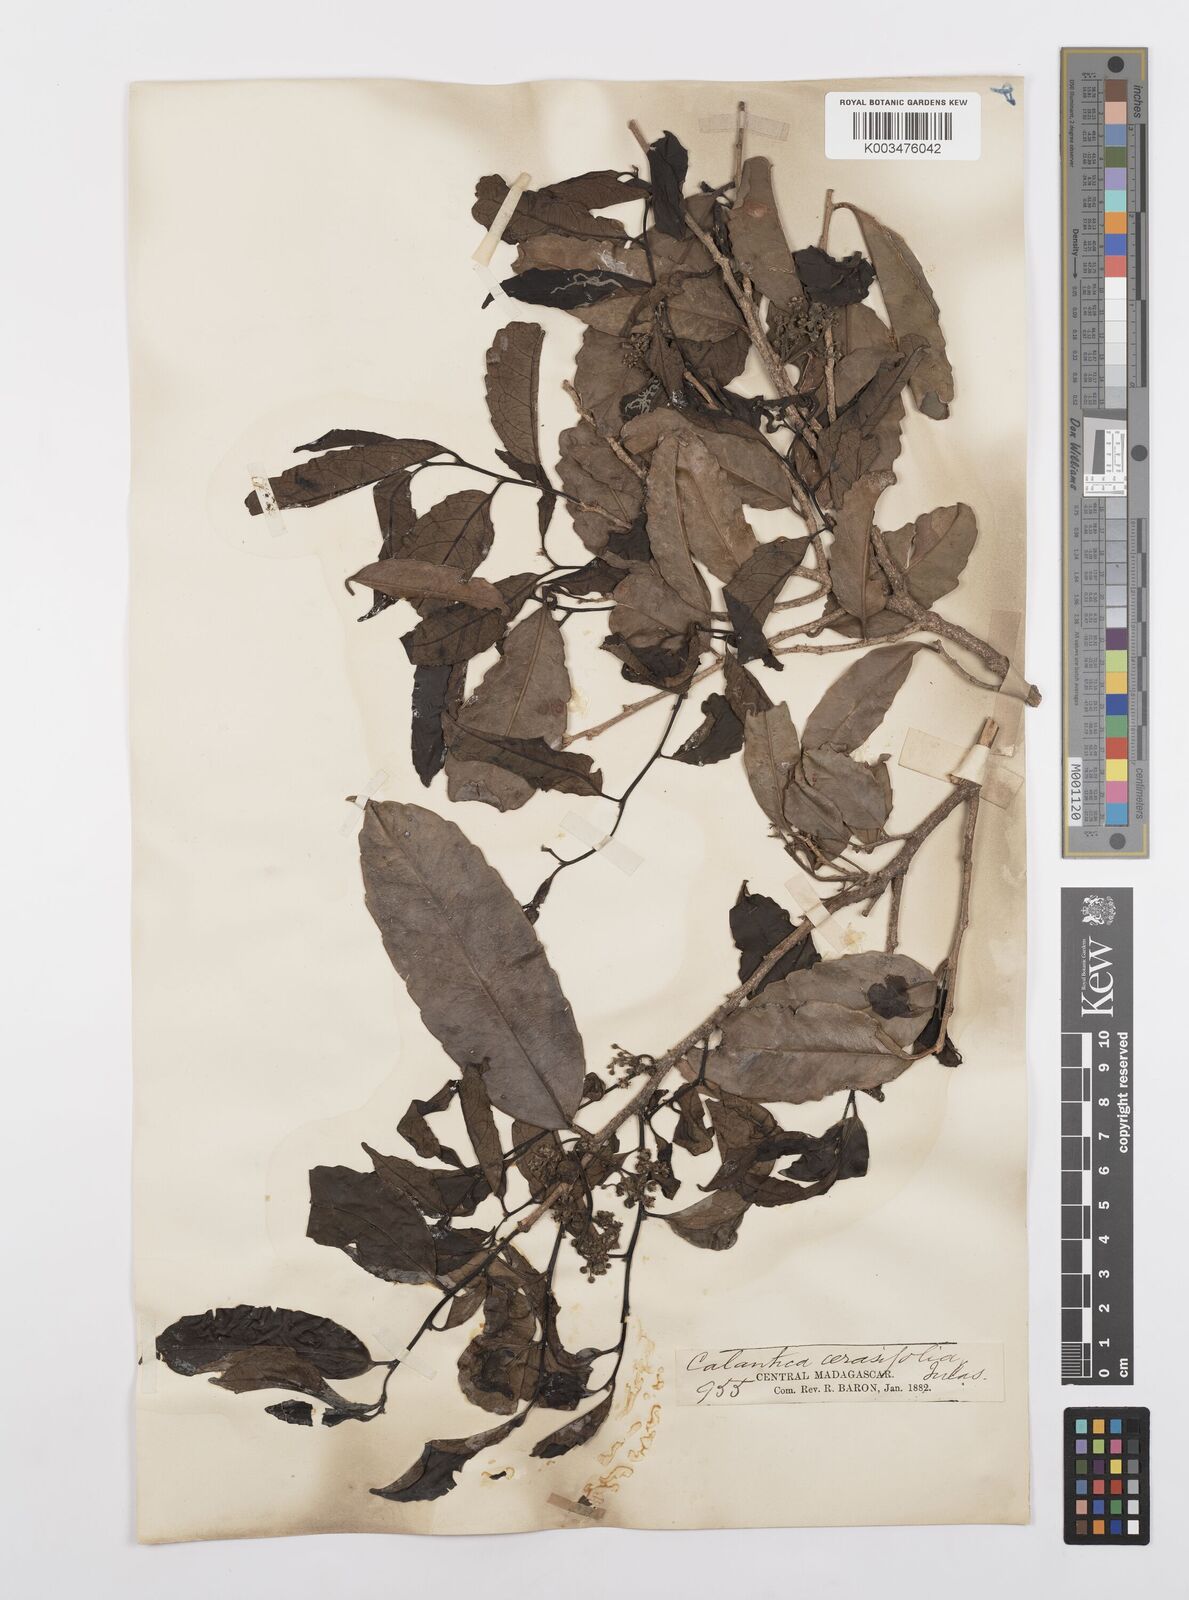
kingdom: Plantae
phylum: Tracheophyta
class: Magnoliopsida
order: Malpighiales
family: Salicaceae
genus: Calantica
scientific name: Calantica cerasifolia
